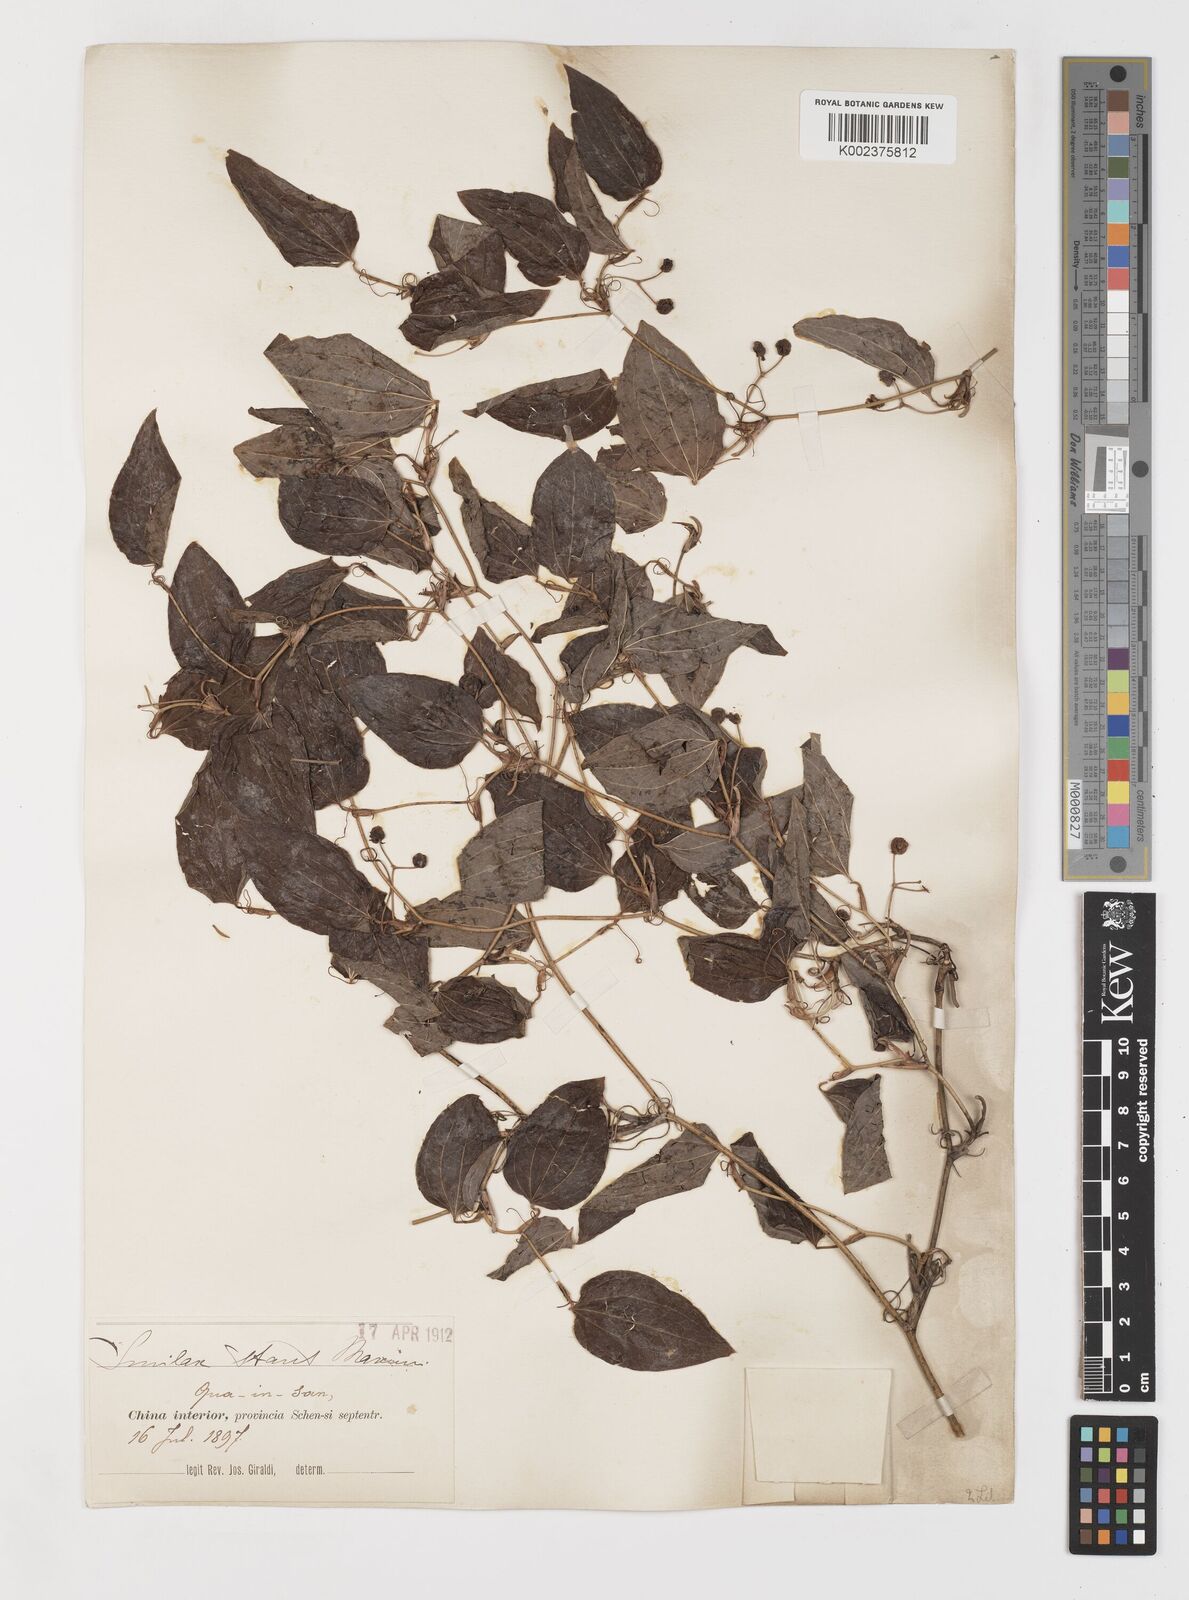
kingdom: Plantae
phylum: Tracheophyta
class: Liliopsida
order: Liliales
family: Smilacaceae
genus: Smilax
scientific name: Smilax
